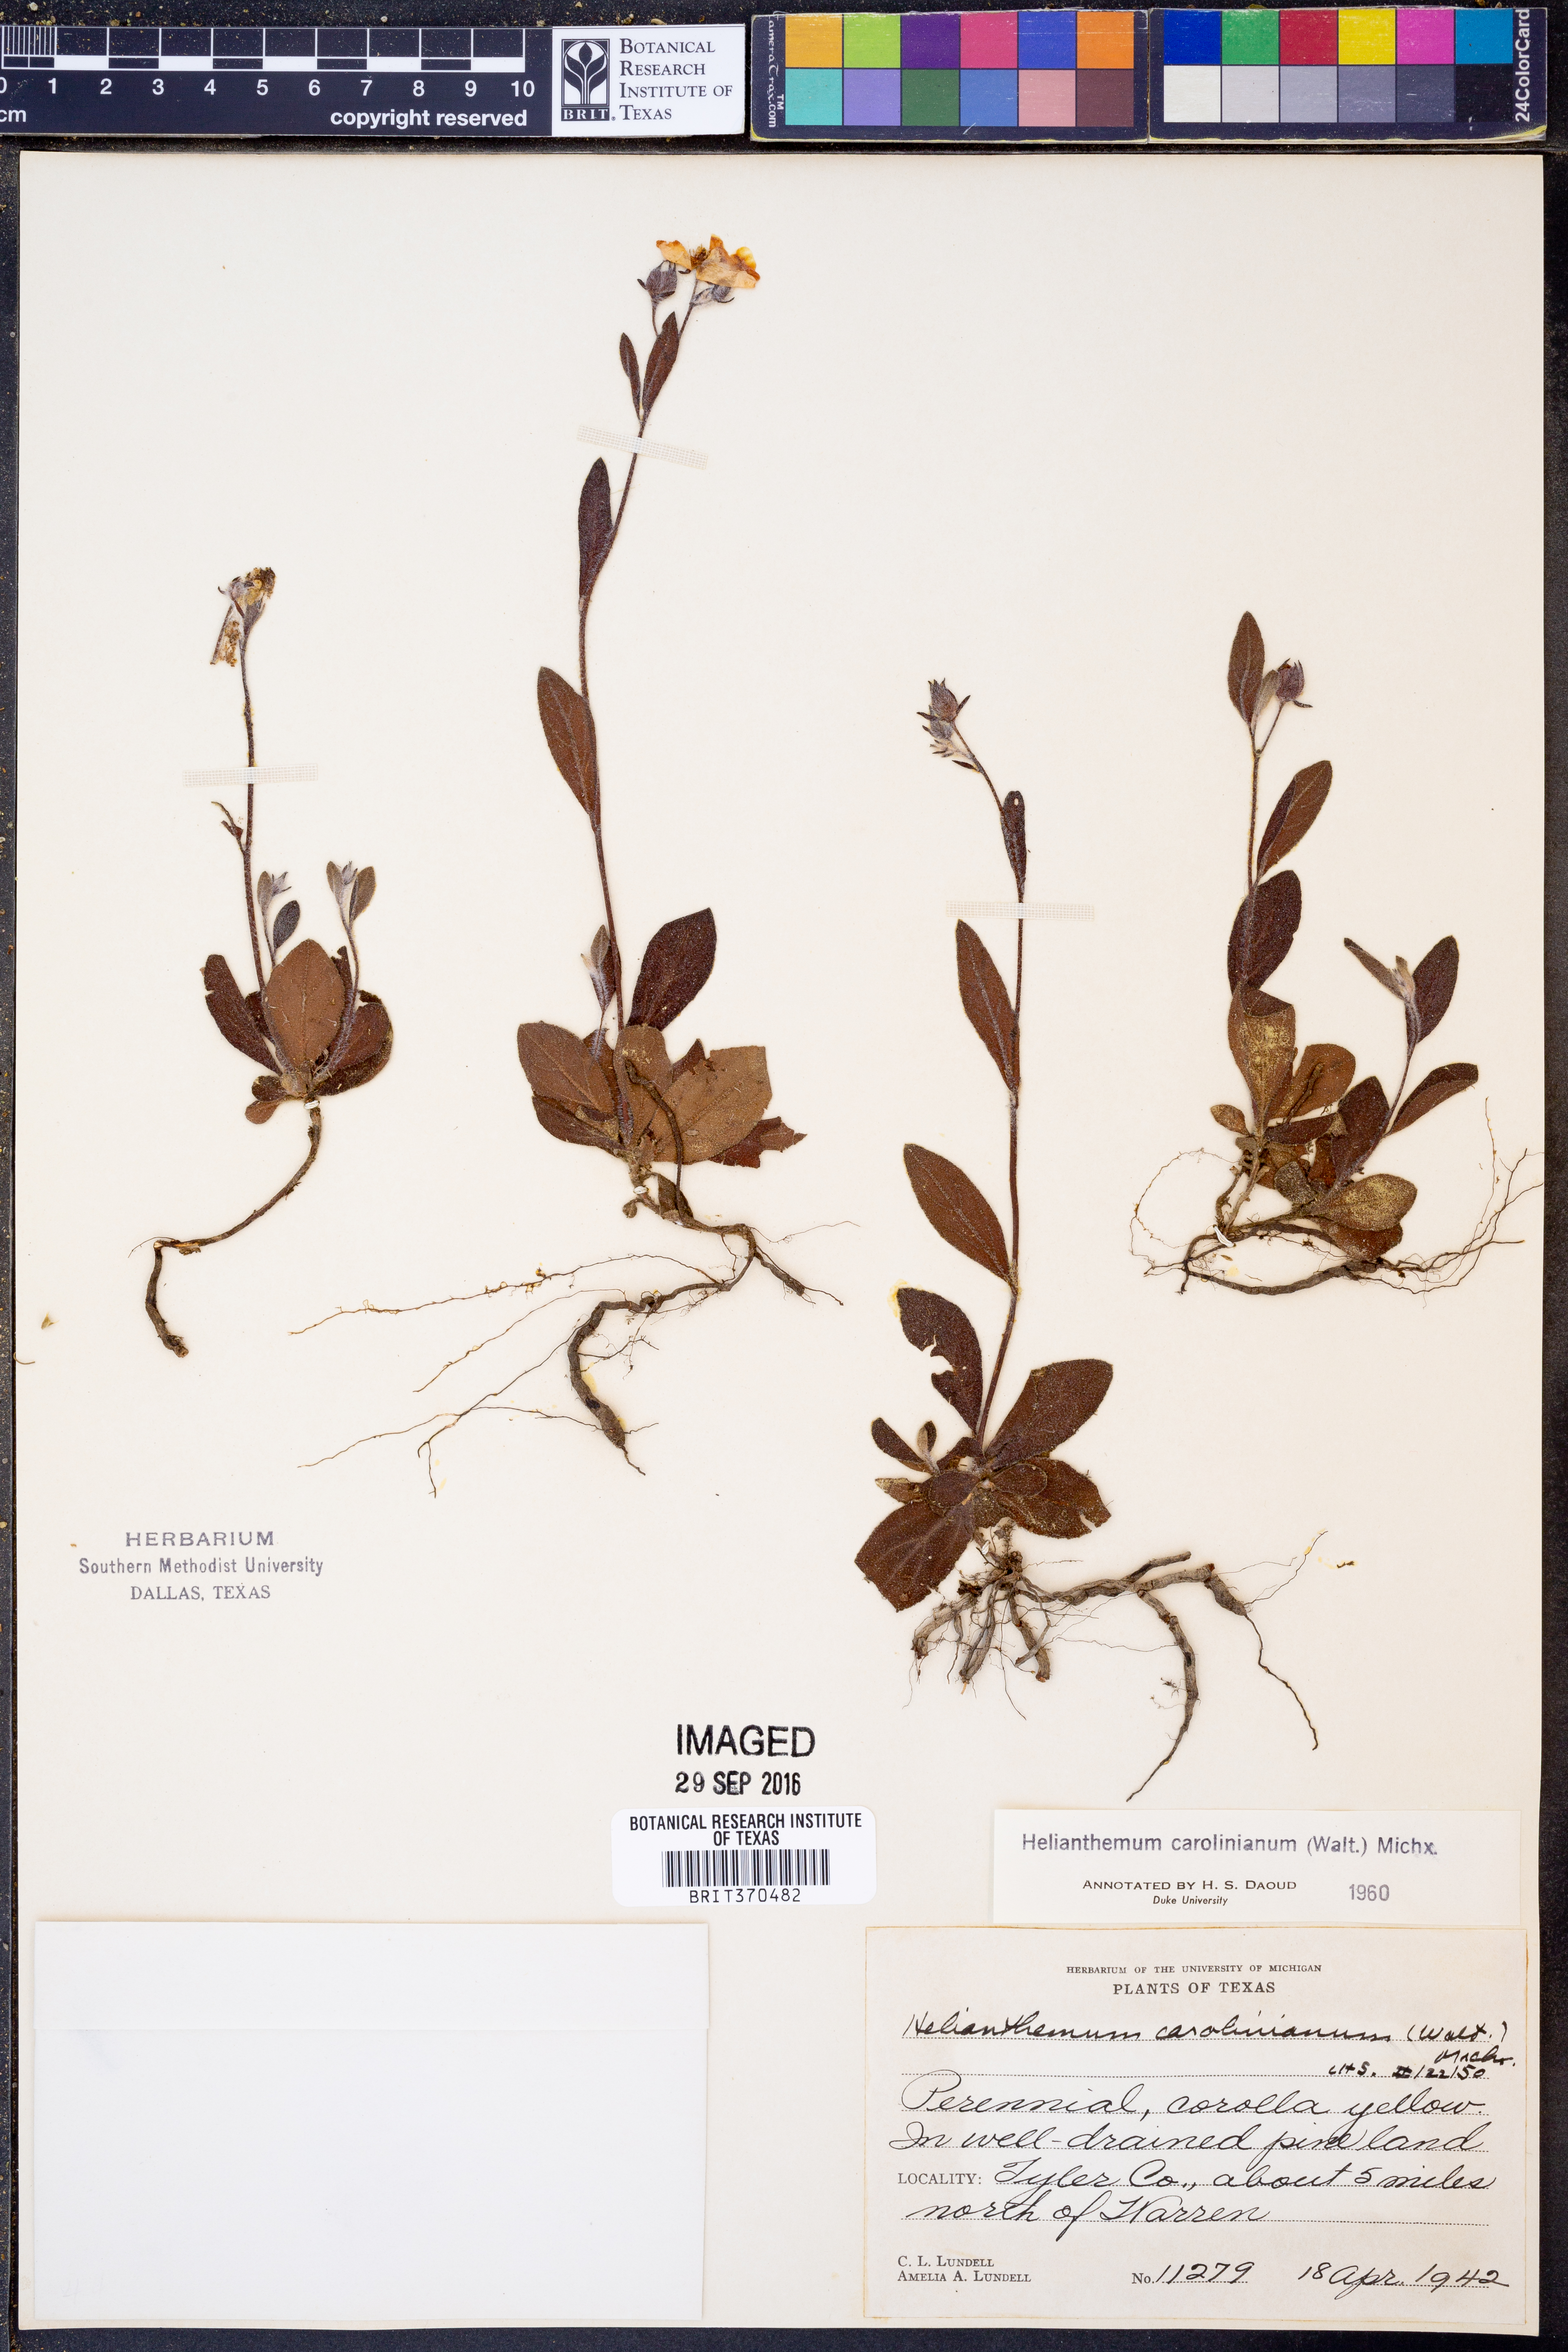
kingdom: Plantae
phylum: Tracheophyta
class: Magnoliopsida
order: Malvales
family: Cistaceae
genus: Crocanthemum
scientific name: Crocanthemum carolinianum
